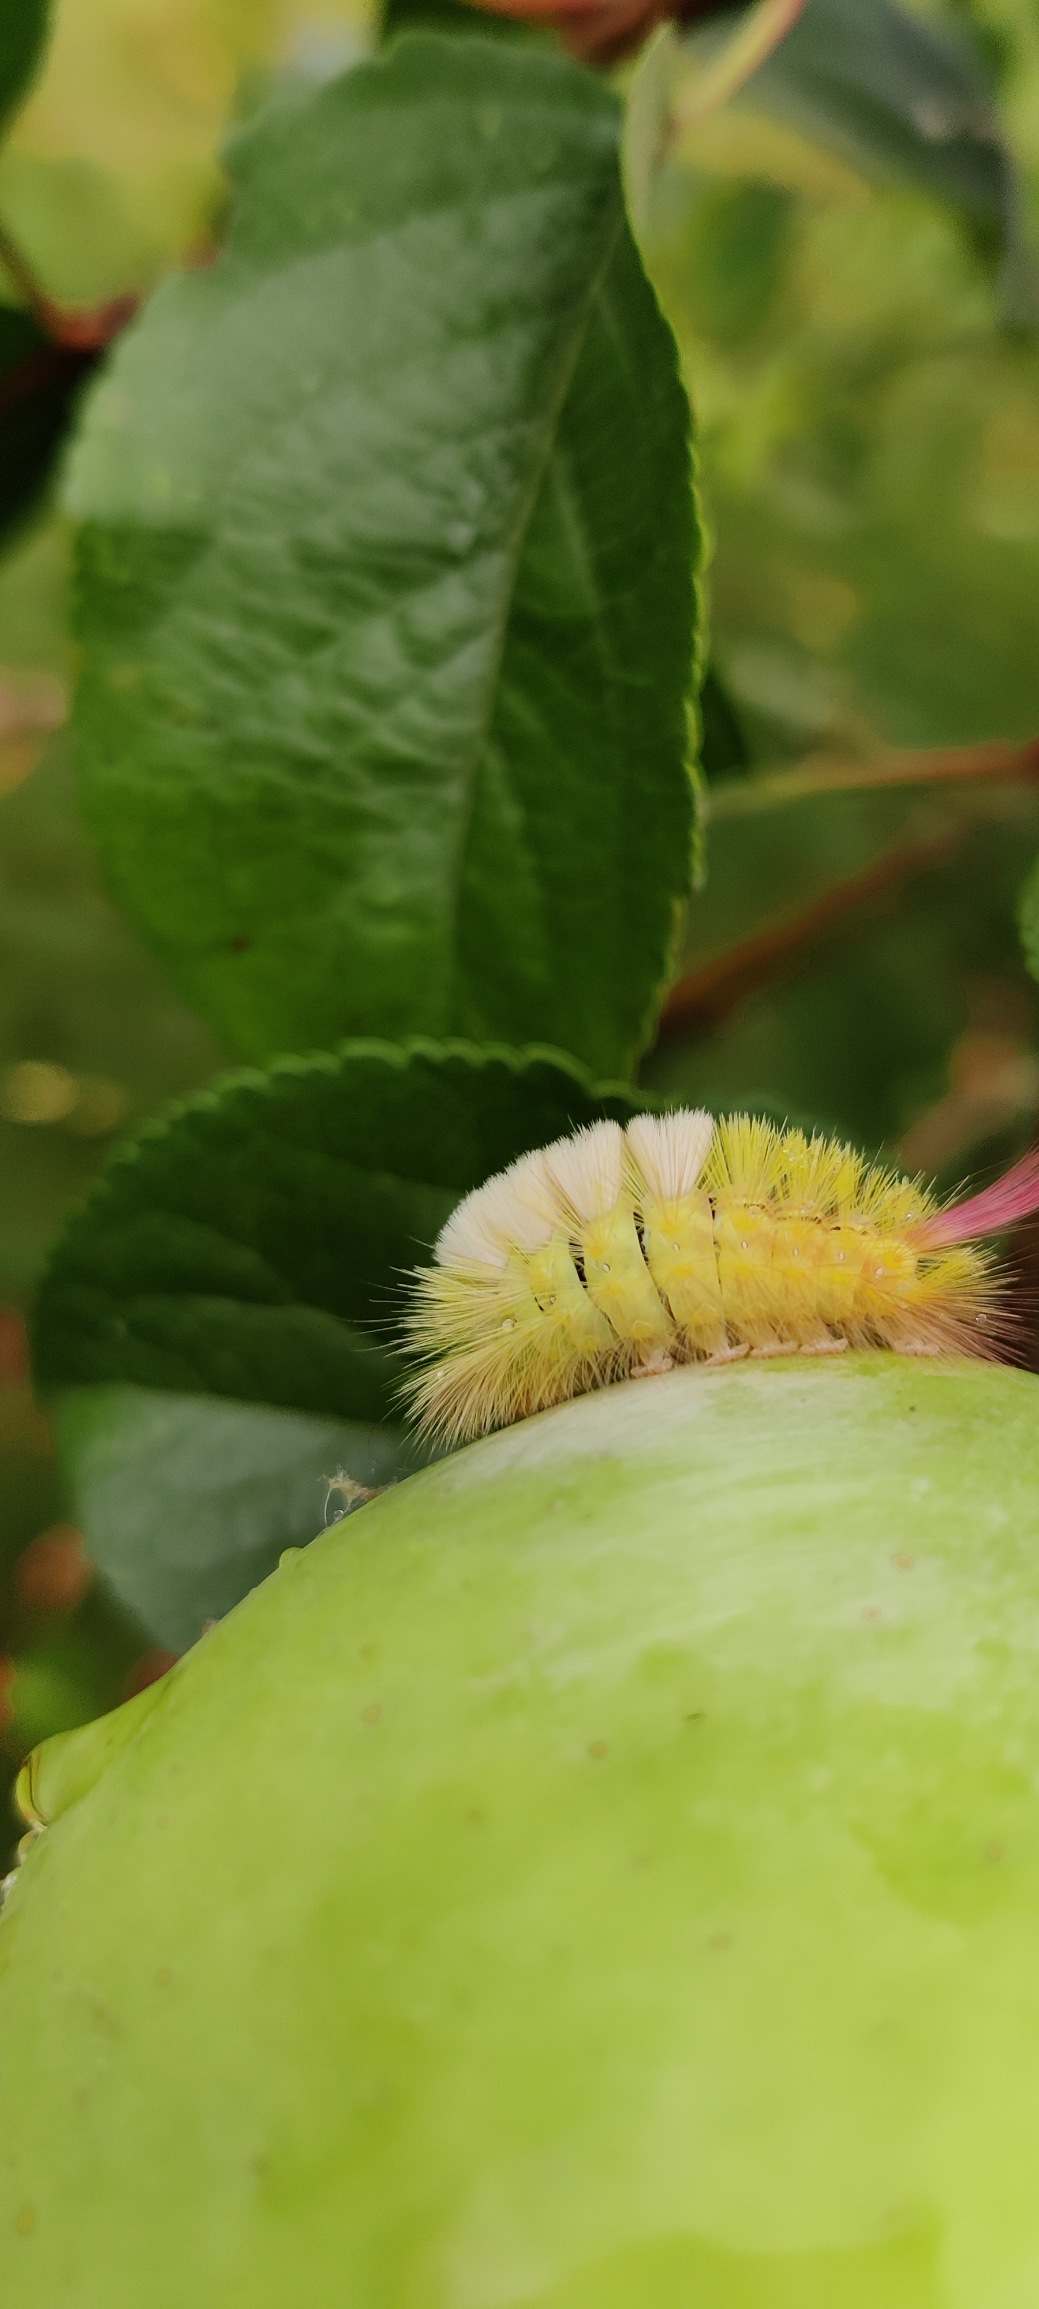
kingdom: Animalia
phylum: Arthropoda
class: Insecta
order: Lepidoptera
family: Erebidae
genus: Calliteara
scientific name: Calliteara pudibunda
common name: Bøgenonne
